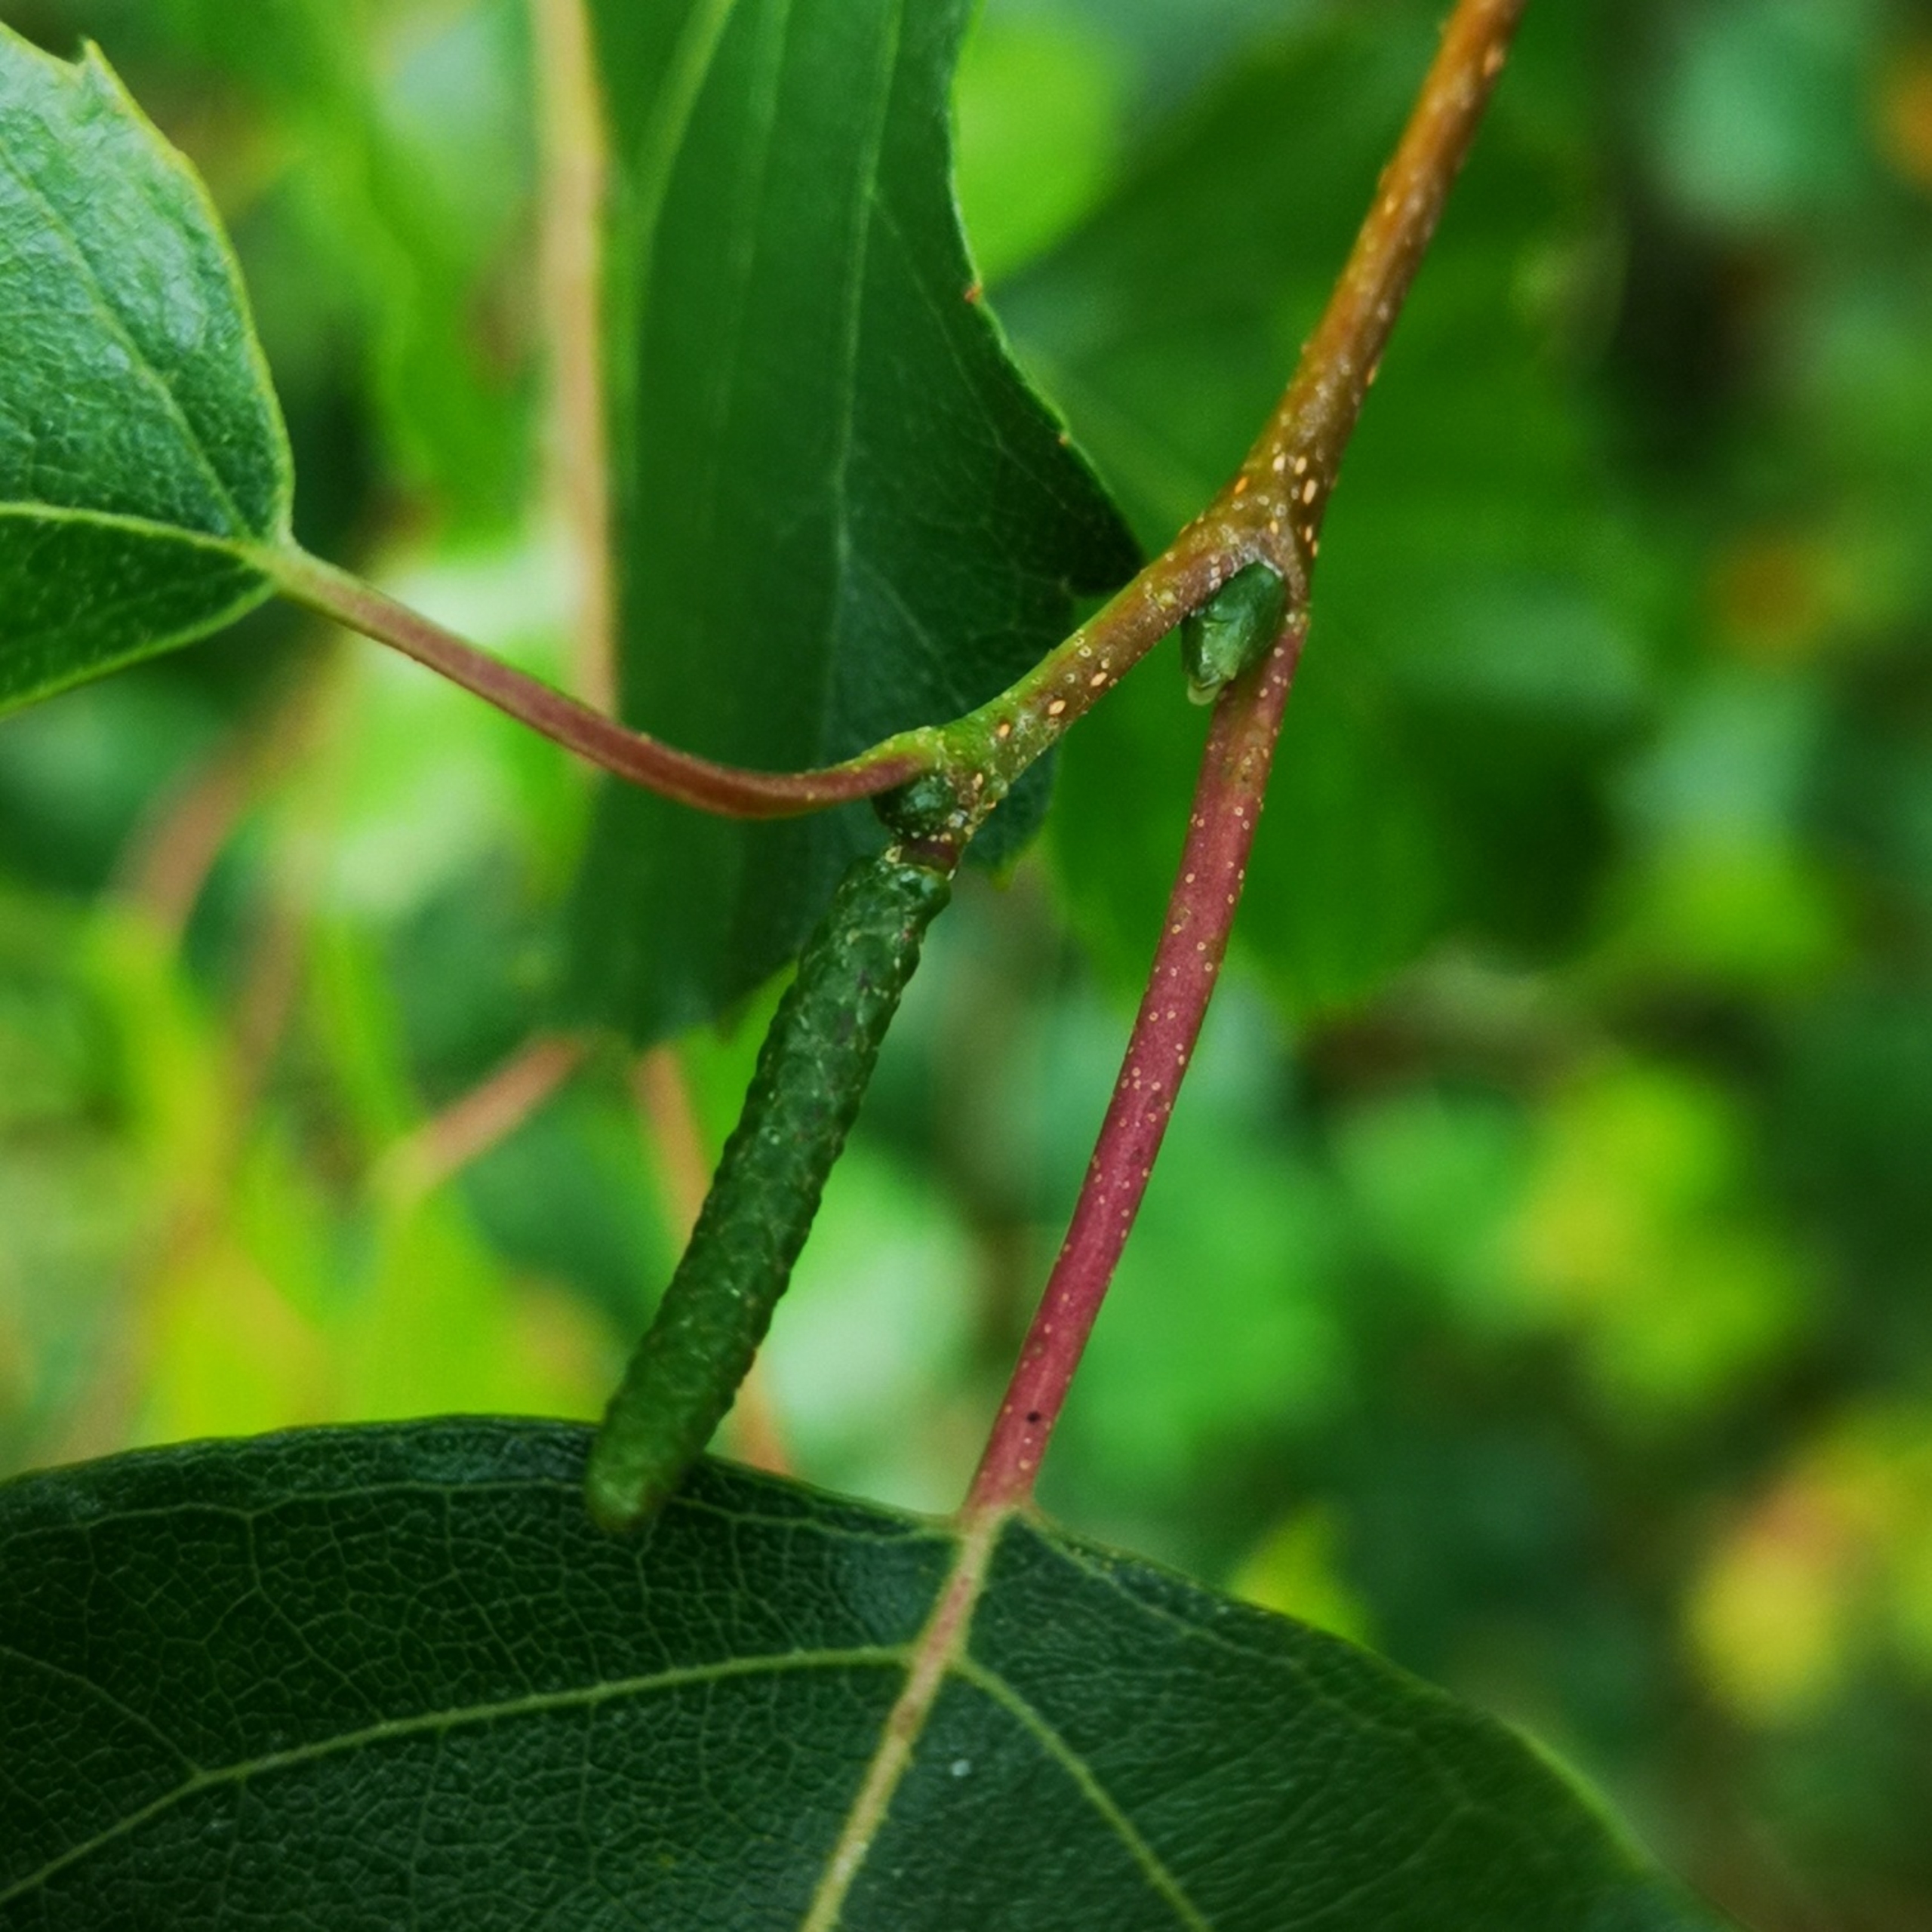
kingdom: Plantae
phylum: Tracheophyta
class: Magnoliopsida
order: Fagales
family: Betulaceae
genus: Betula
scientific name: Betula pendula
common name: Vorte-birk
